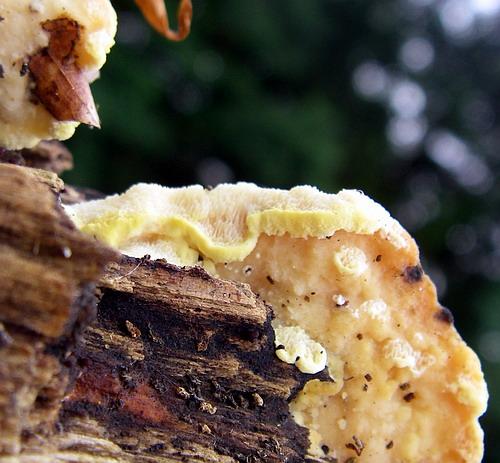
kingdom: Fungi
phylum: Basidiomycota
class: Agaricomycetes
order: Polyporales
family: Steccherinaceae
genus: Antrodiella
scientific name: Antrodiella serpula
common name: gulrandet elastikporesvamp
